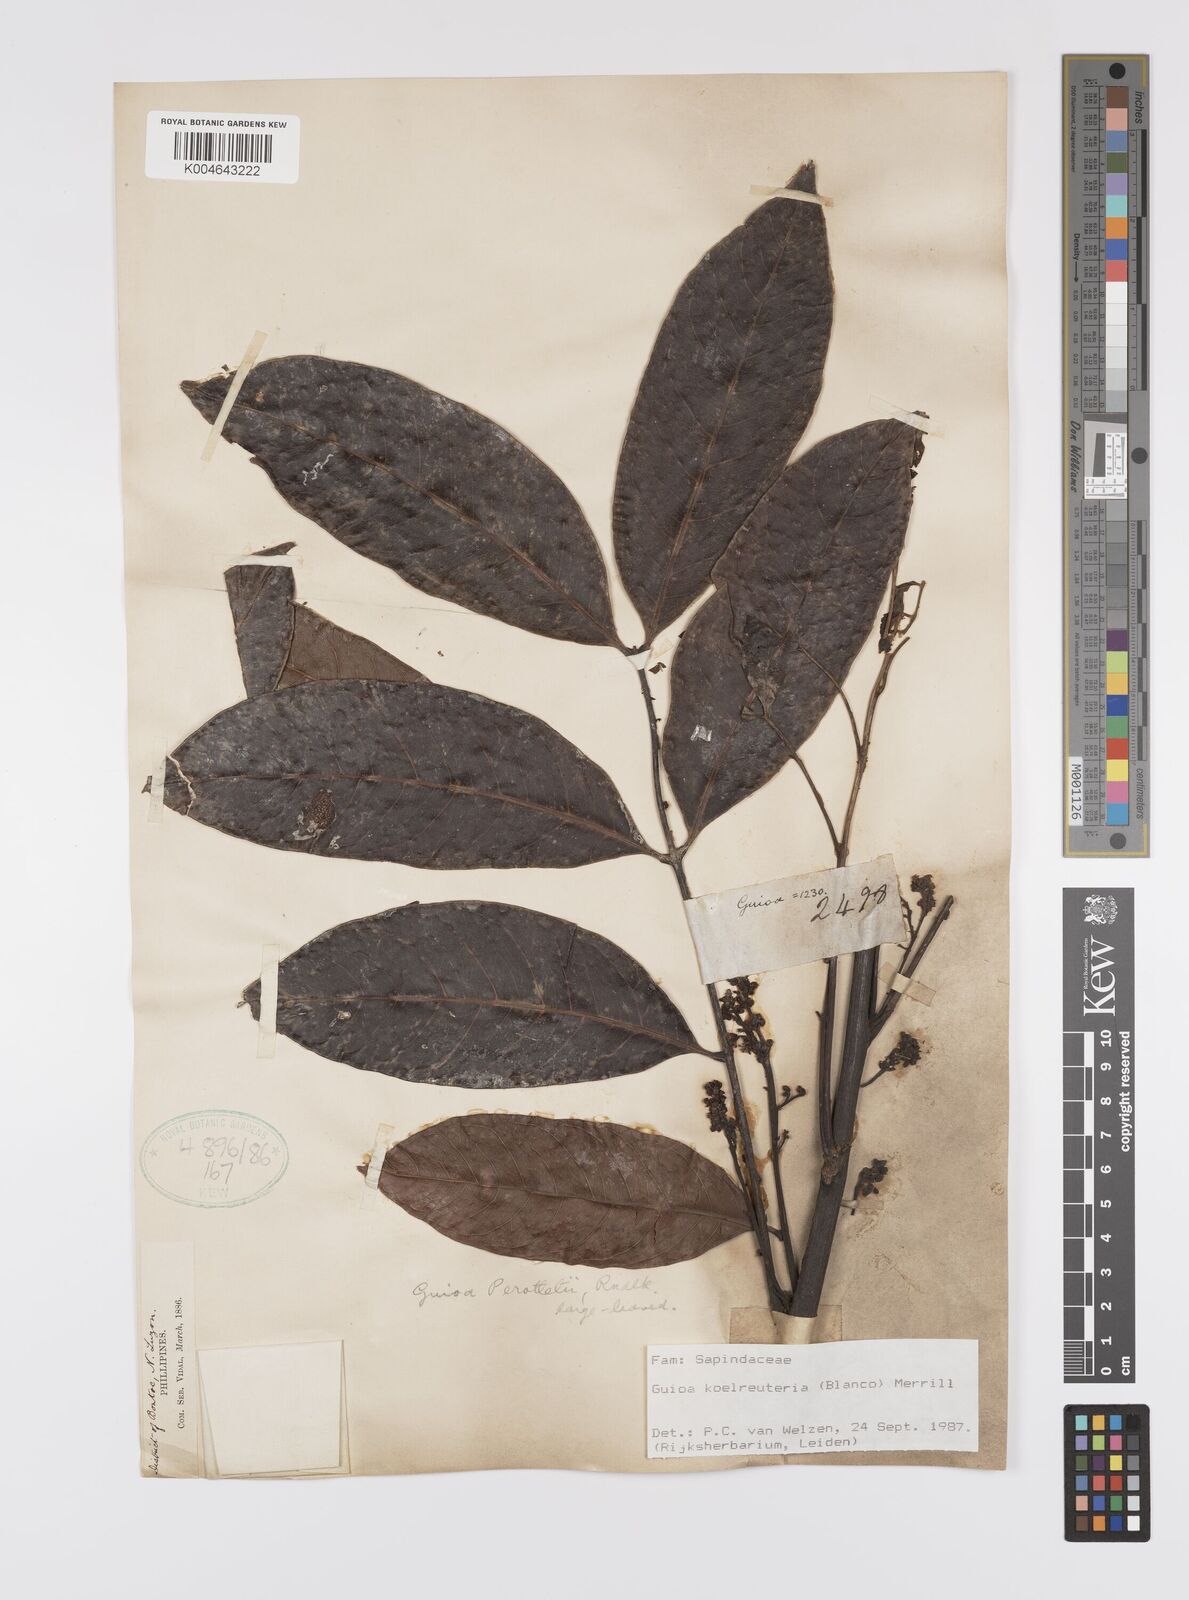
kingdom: Plantae
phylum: Tracheophyta
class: Magnoliopsida
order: Sapindales
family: Sapindaceae
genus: Guioa
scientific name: Guioa koelreuteria
